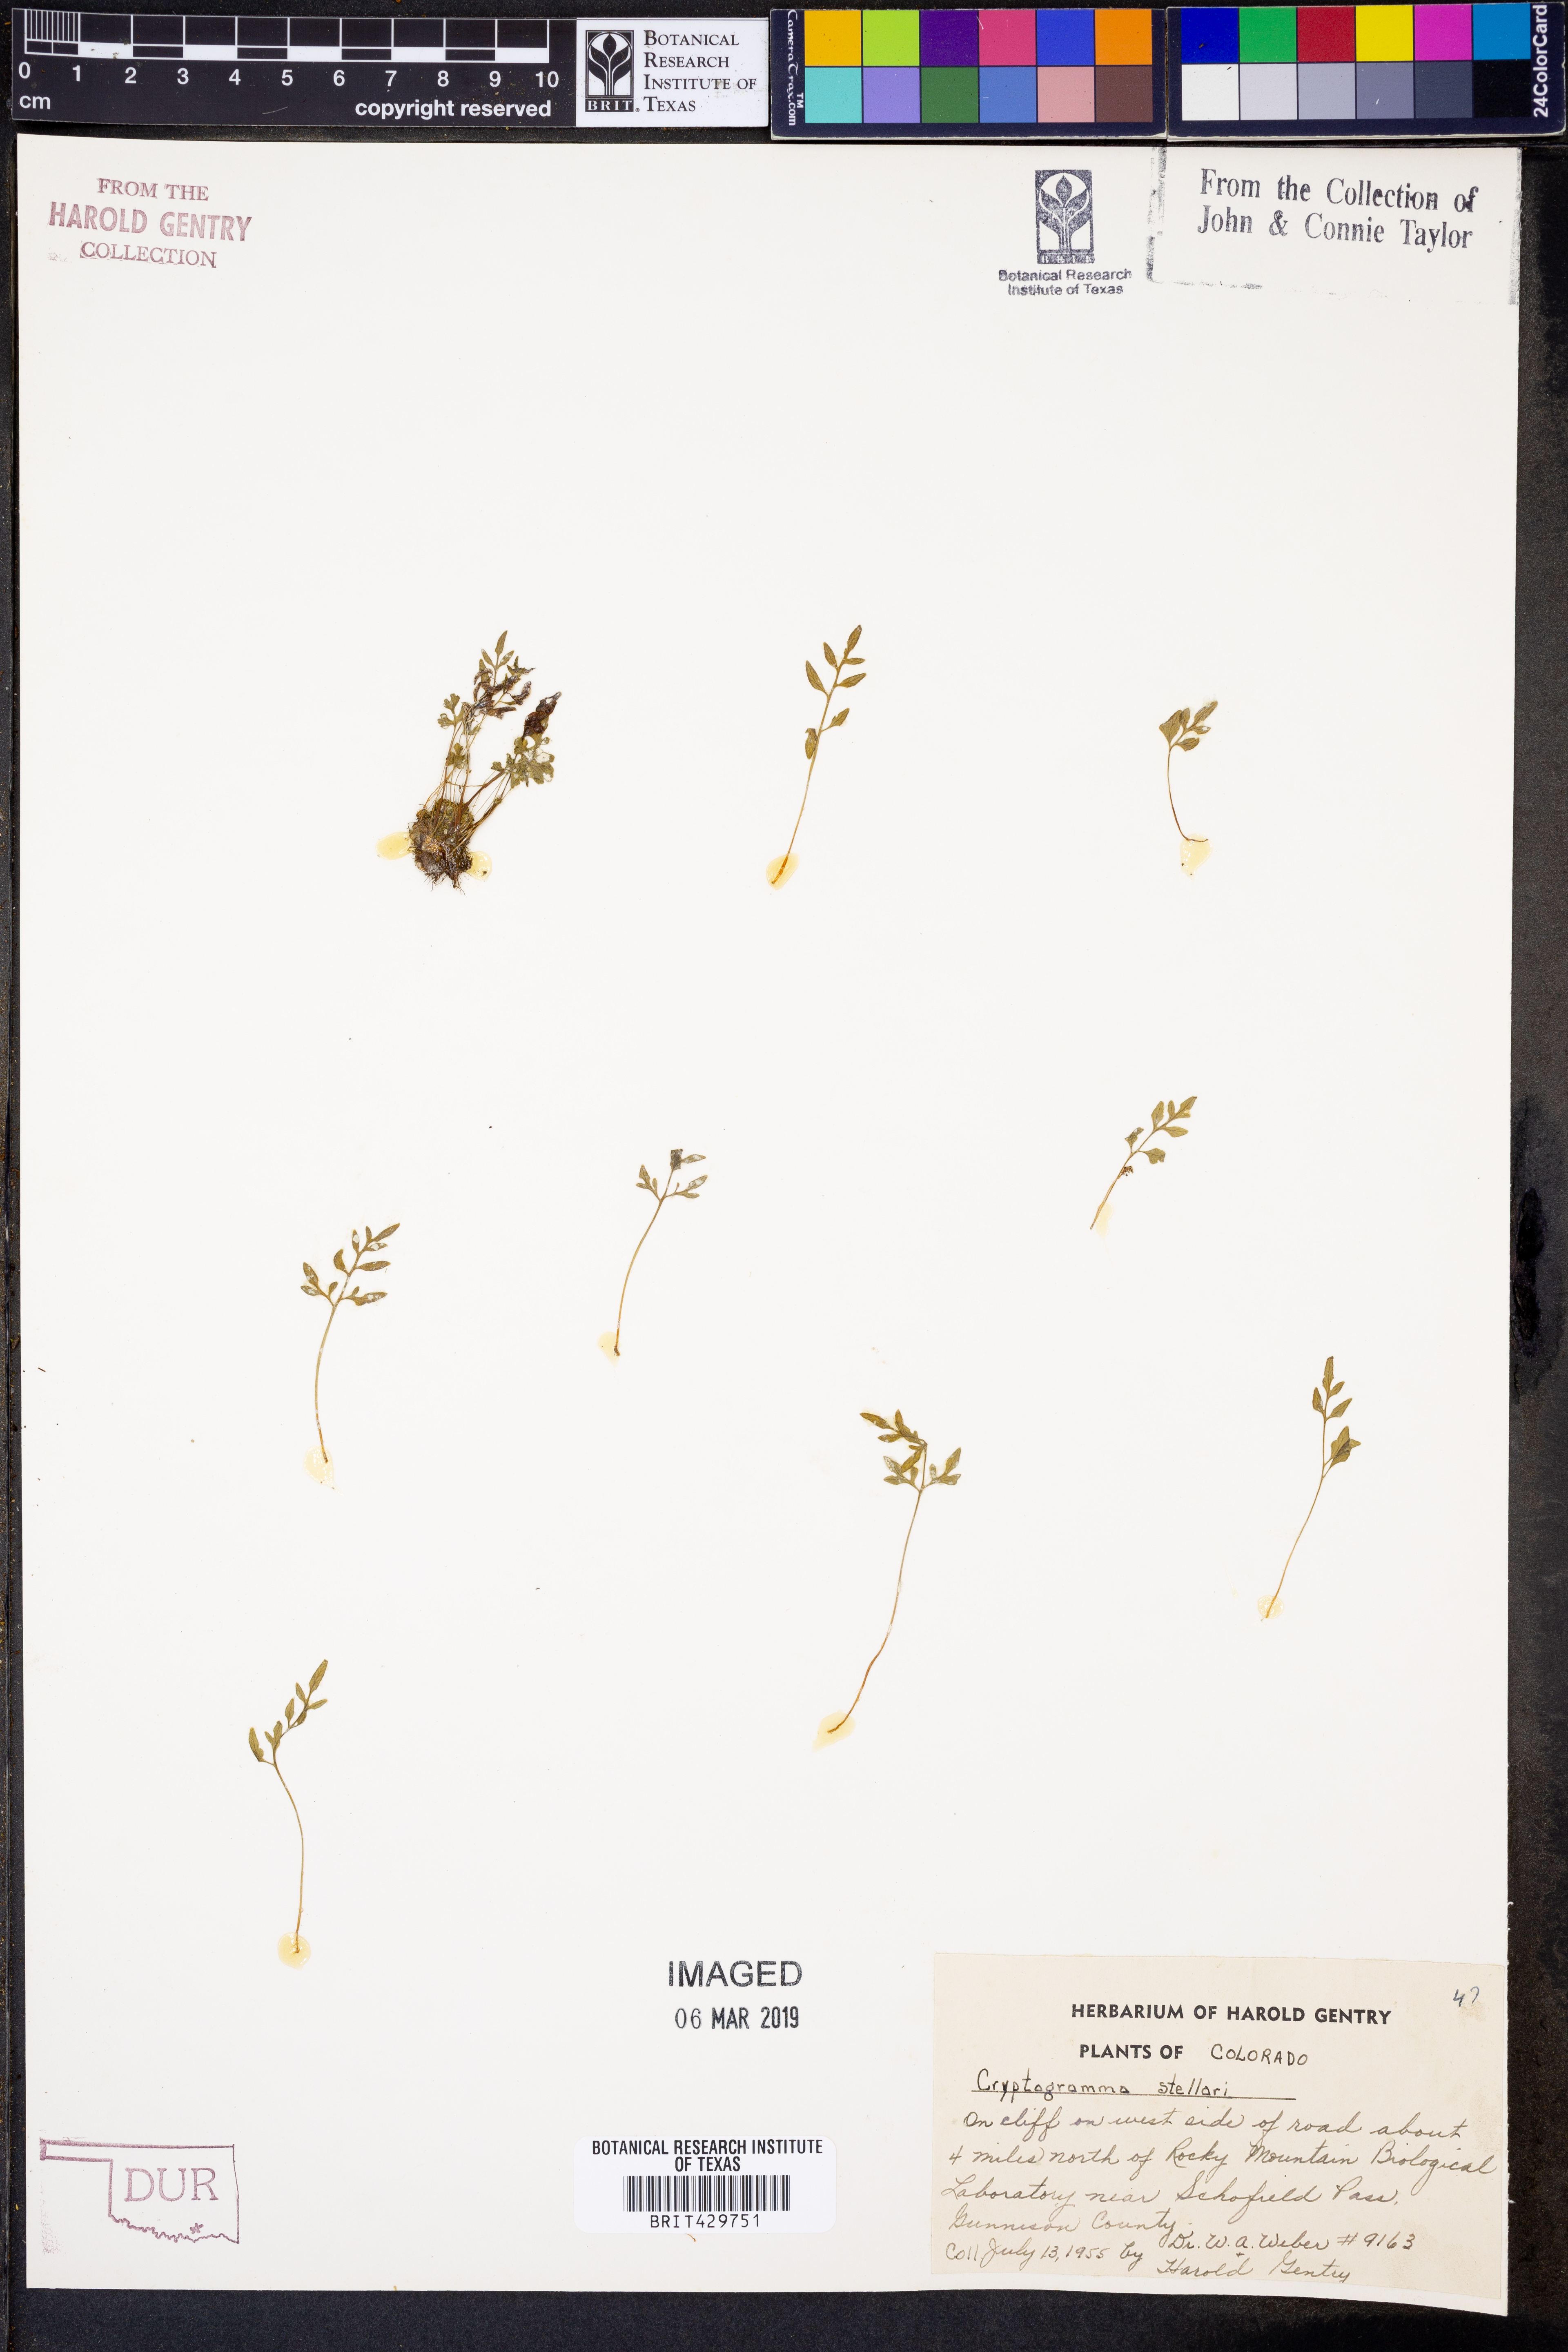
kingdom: Plantae
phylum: Tracheophyta
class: Polypodiopsida
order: Polypodiales
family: Pteridaceae
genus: Cryptogramma
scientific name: Cryptogramma stelleri
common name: Cliff-brake
